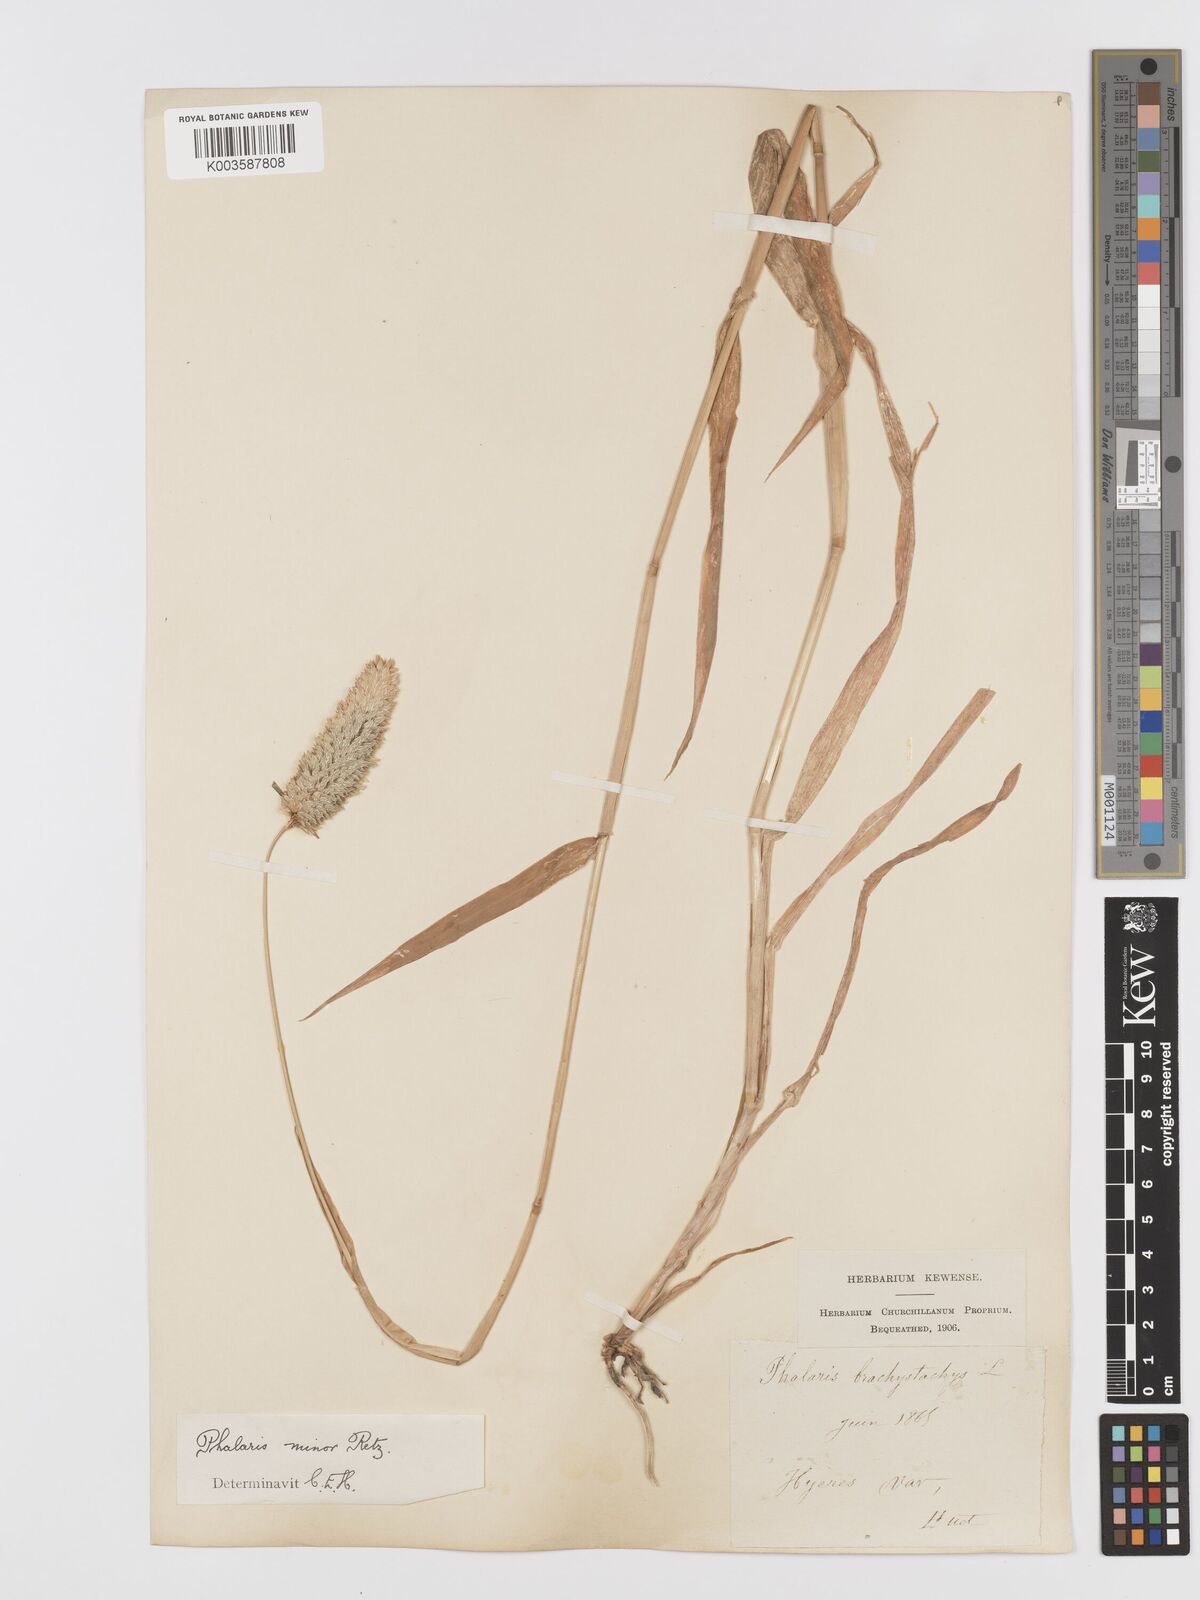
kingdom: Plantae
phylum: Tracheophyta
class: Liliopsida
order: Poales
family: Poaceae
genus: Phalaris
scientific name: Phalaris minor
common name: Littleseed canarygrass
